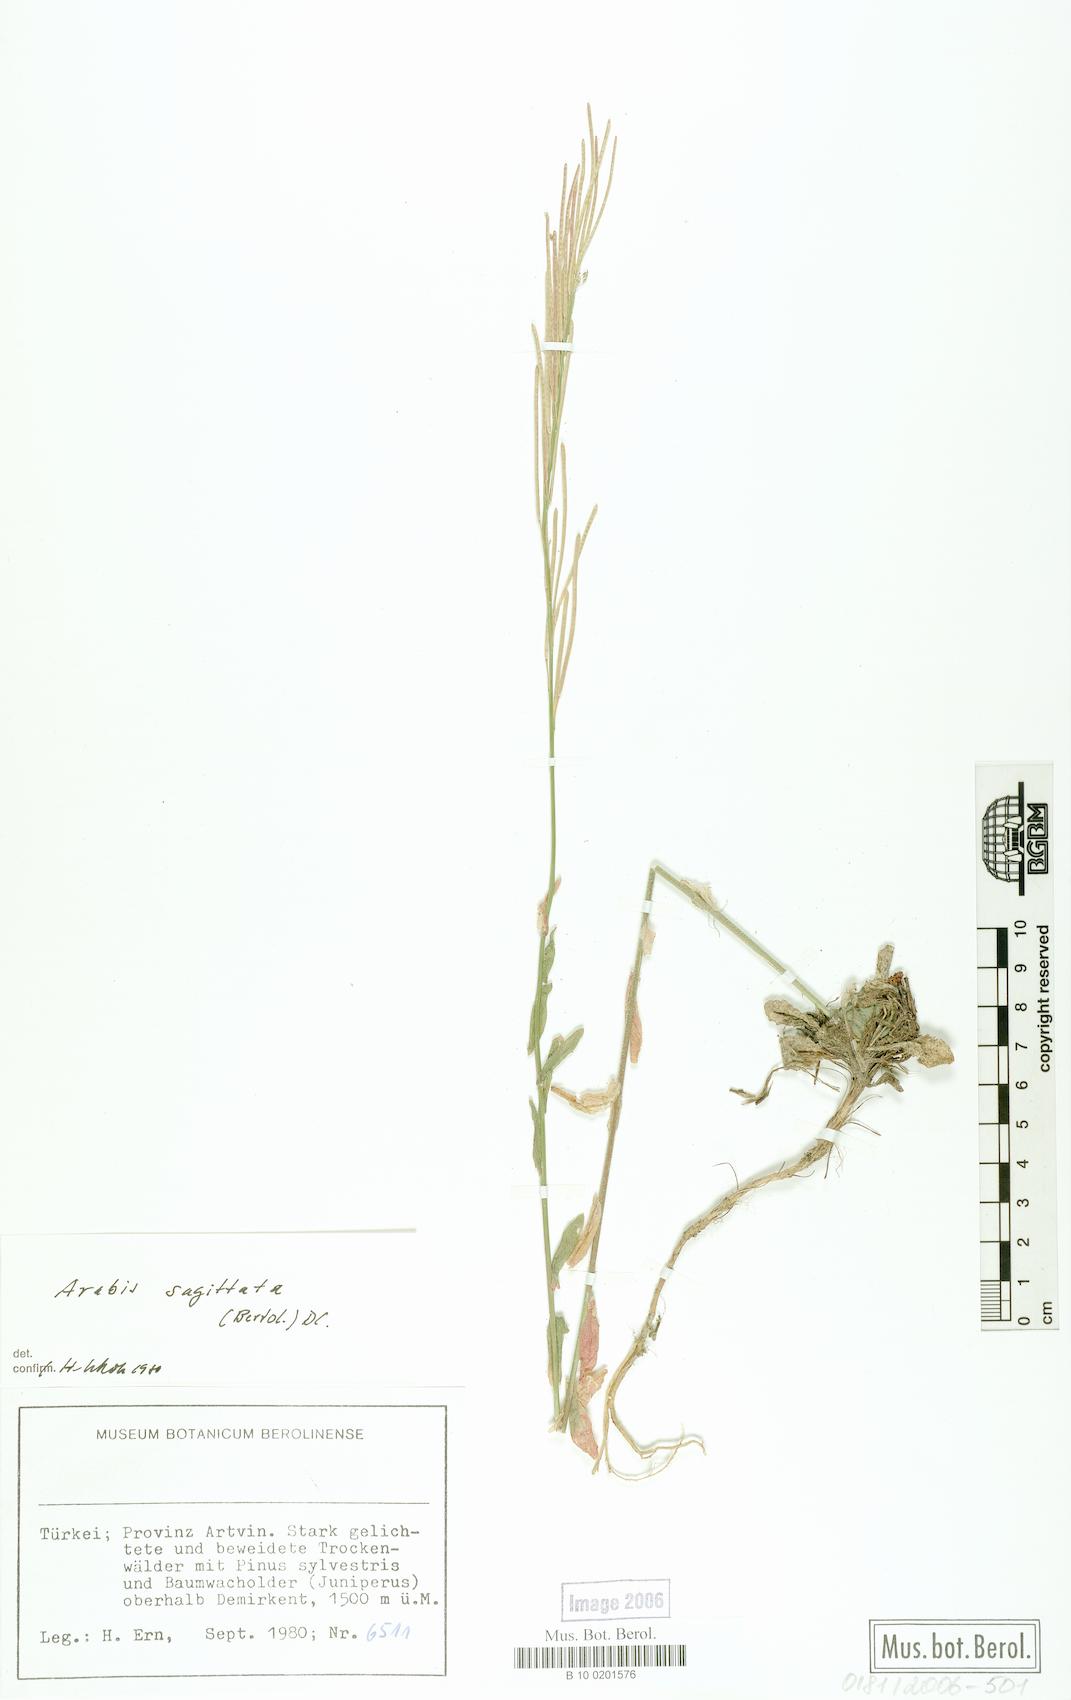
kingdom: Plantae
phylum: Tracheophyta
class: Magnoliopsida
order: Brassicales
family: Brassicaceae
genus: Arabis
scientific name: Arabis sagittata
